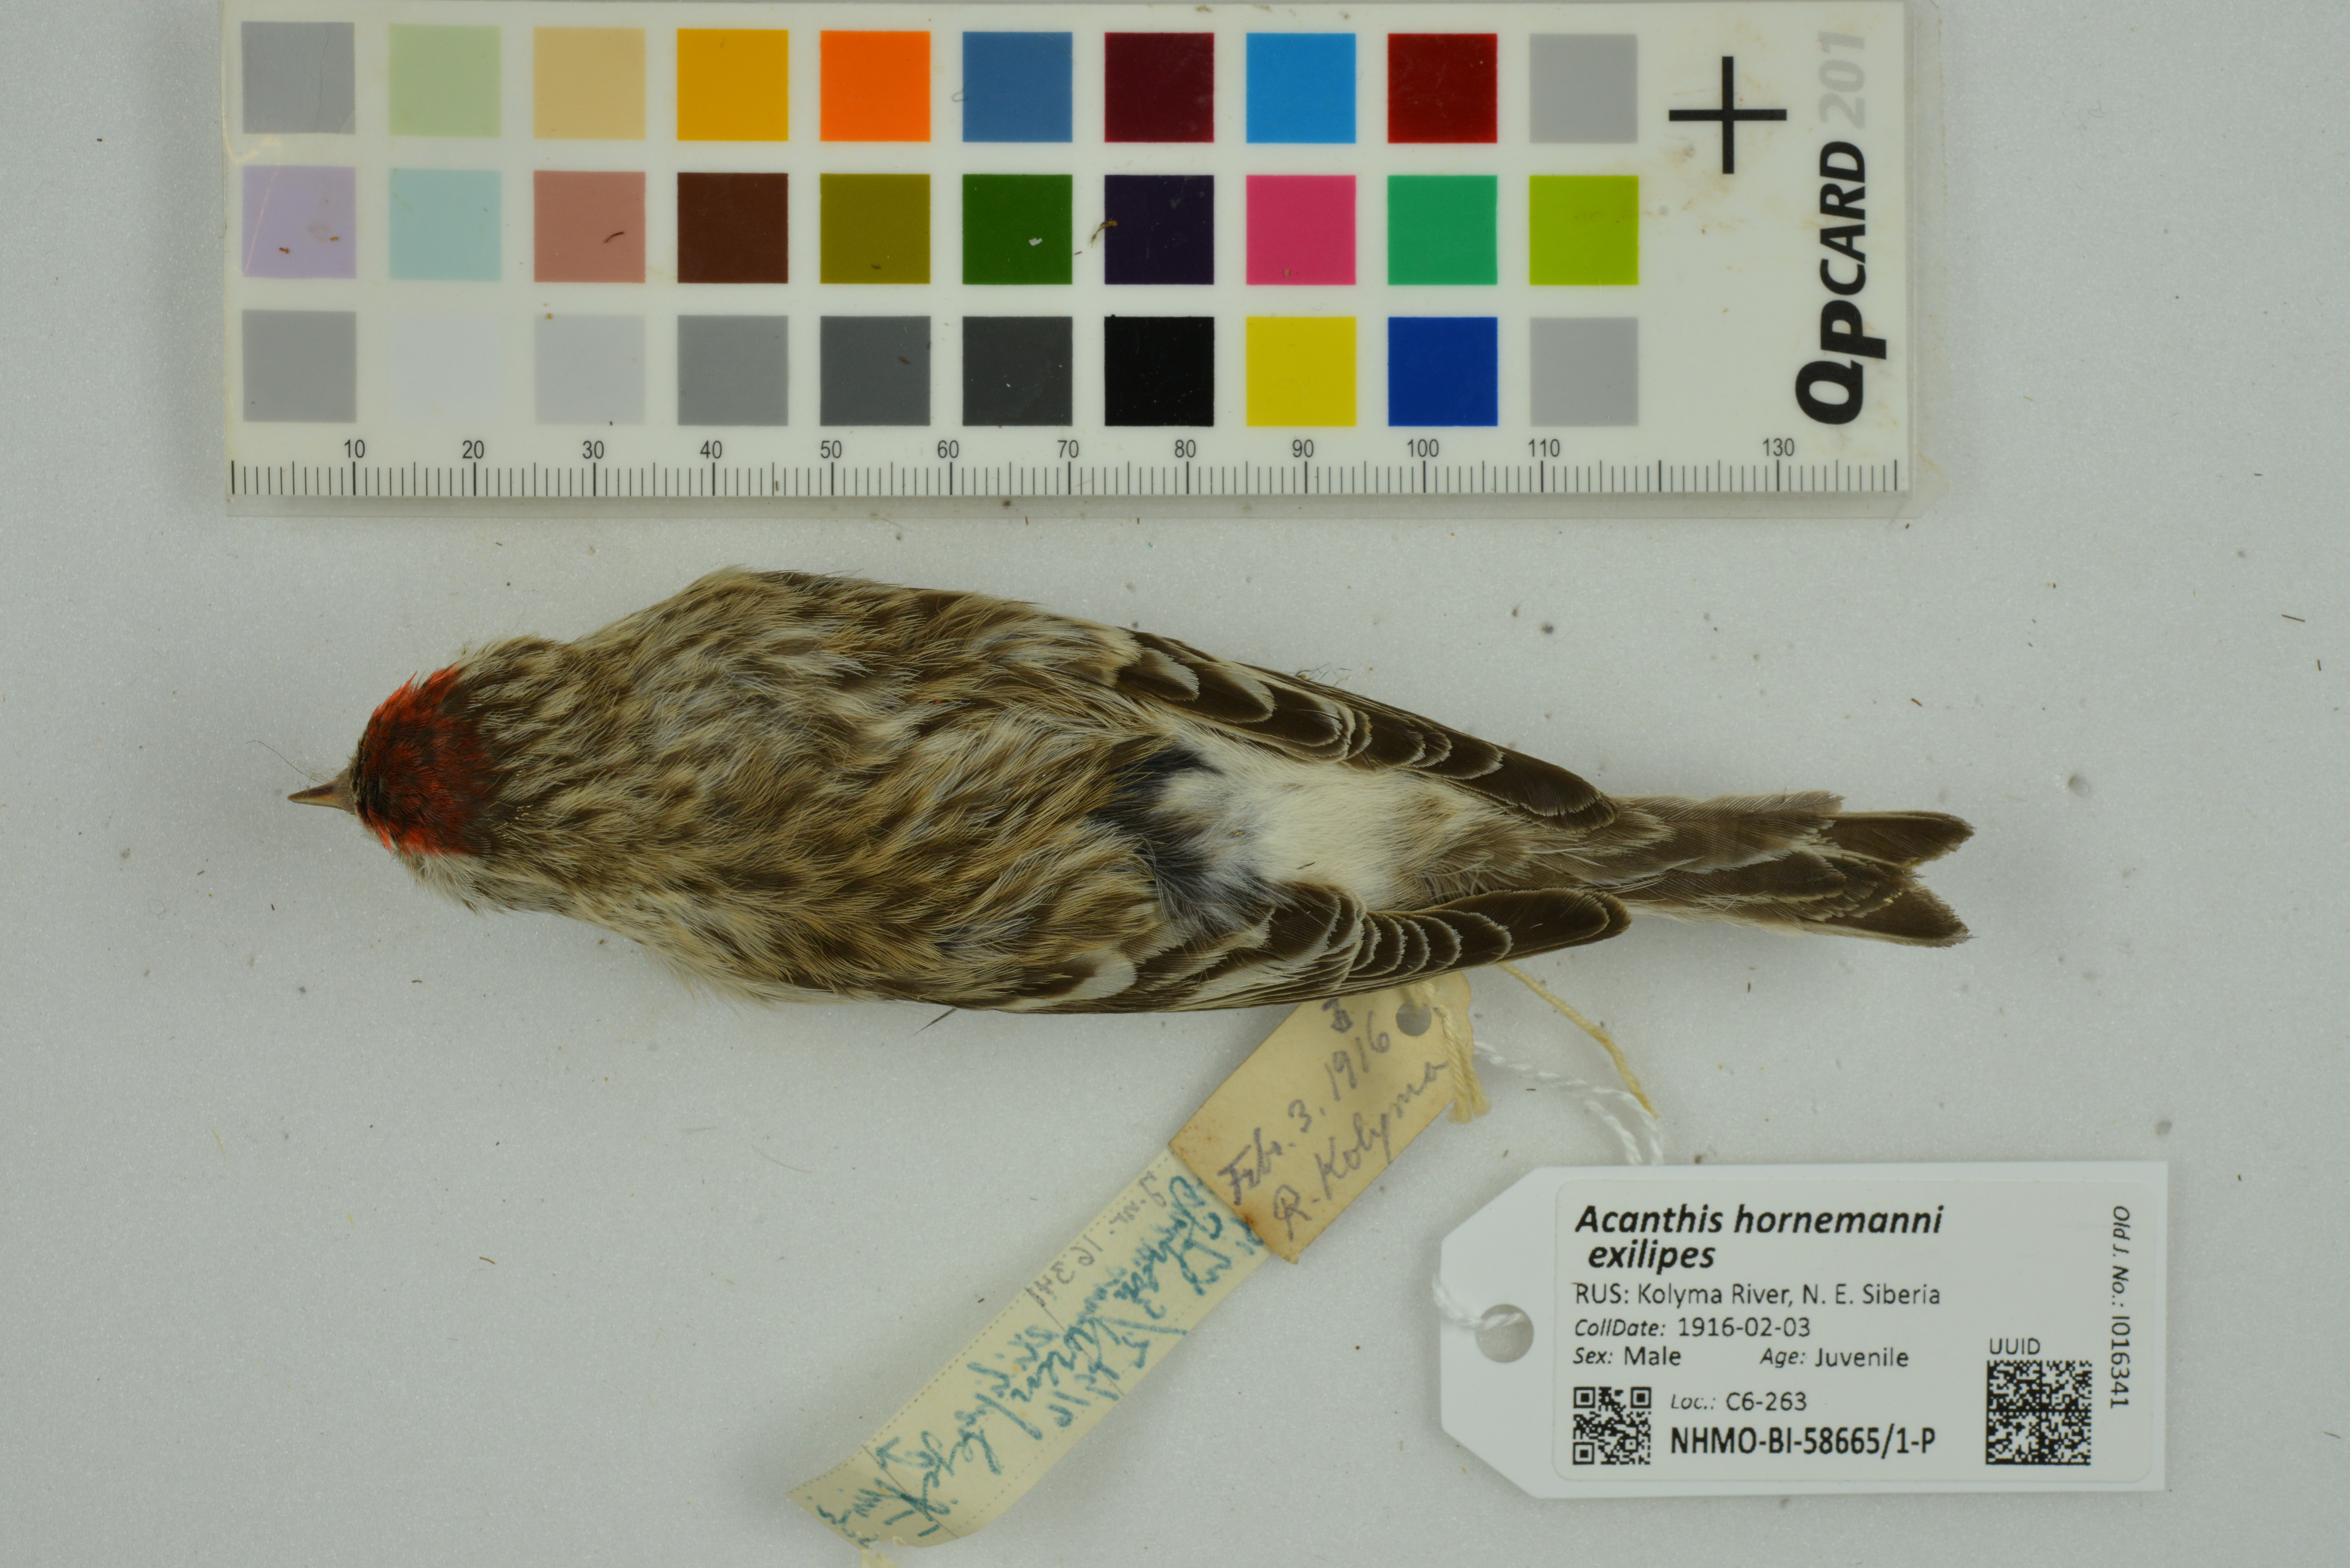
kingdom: Animalia
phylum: Chordata
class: Aves
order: Passeriformes
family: Fringillidae
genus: Acanthis
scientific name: Acanthis hornemanni
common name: Arctic redpoll
